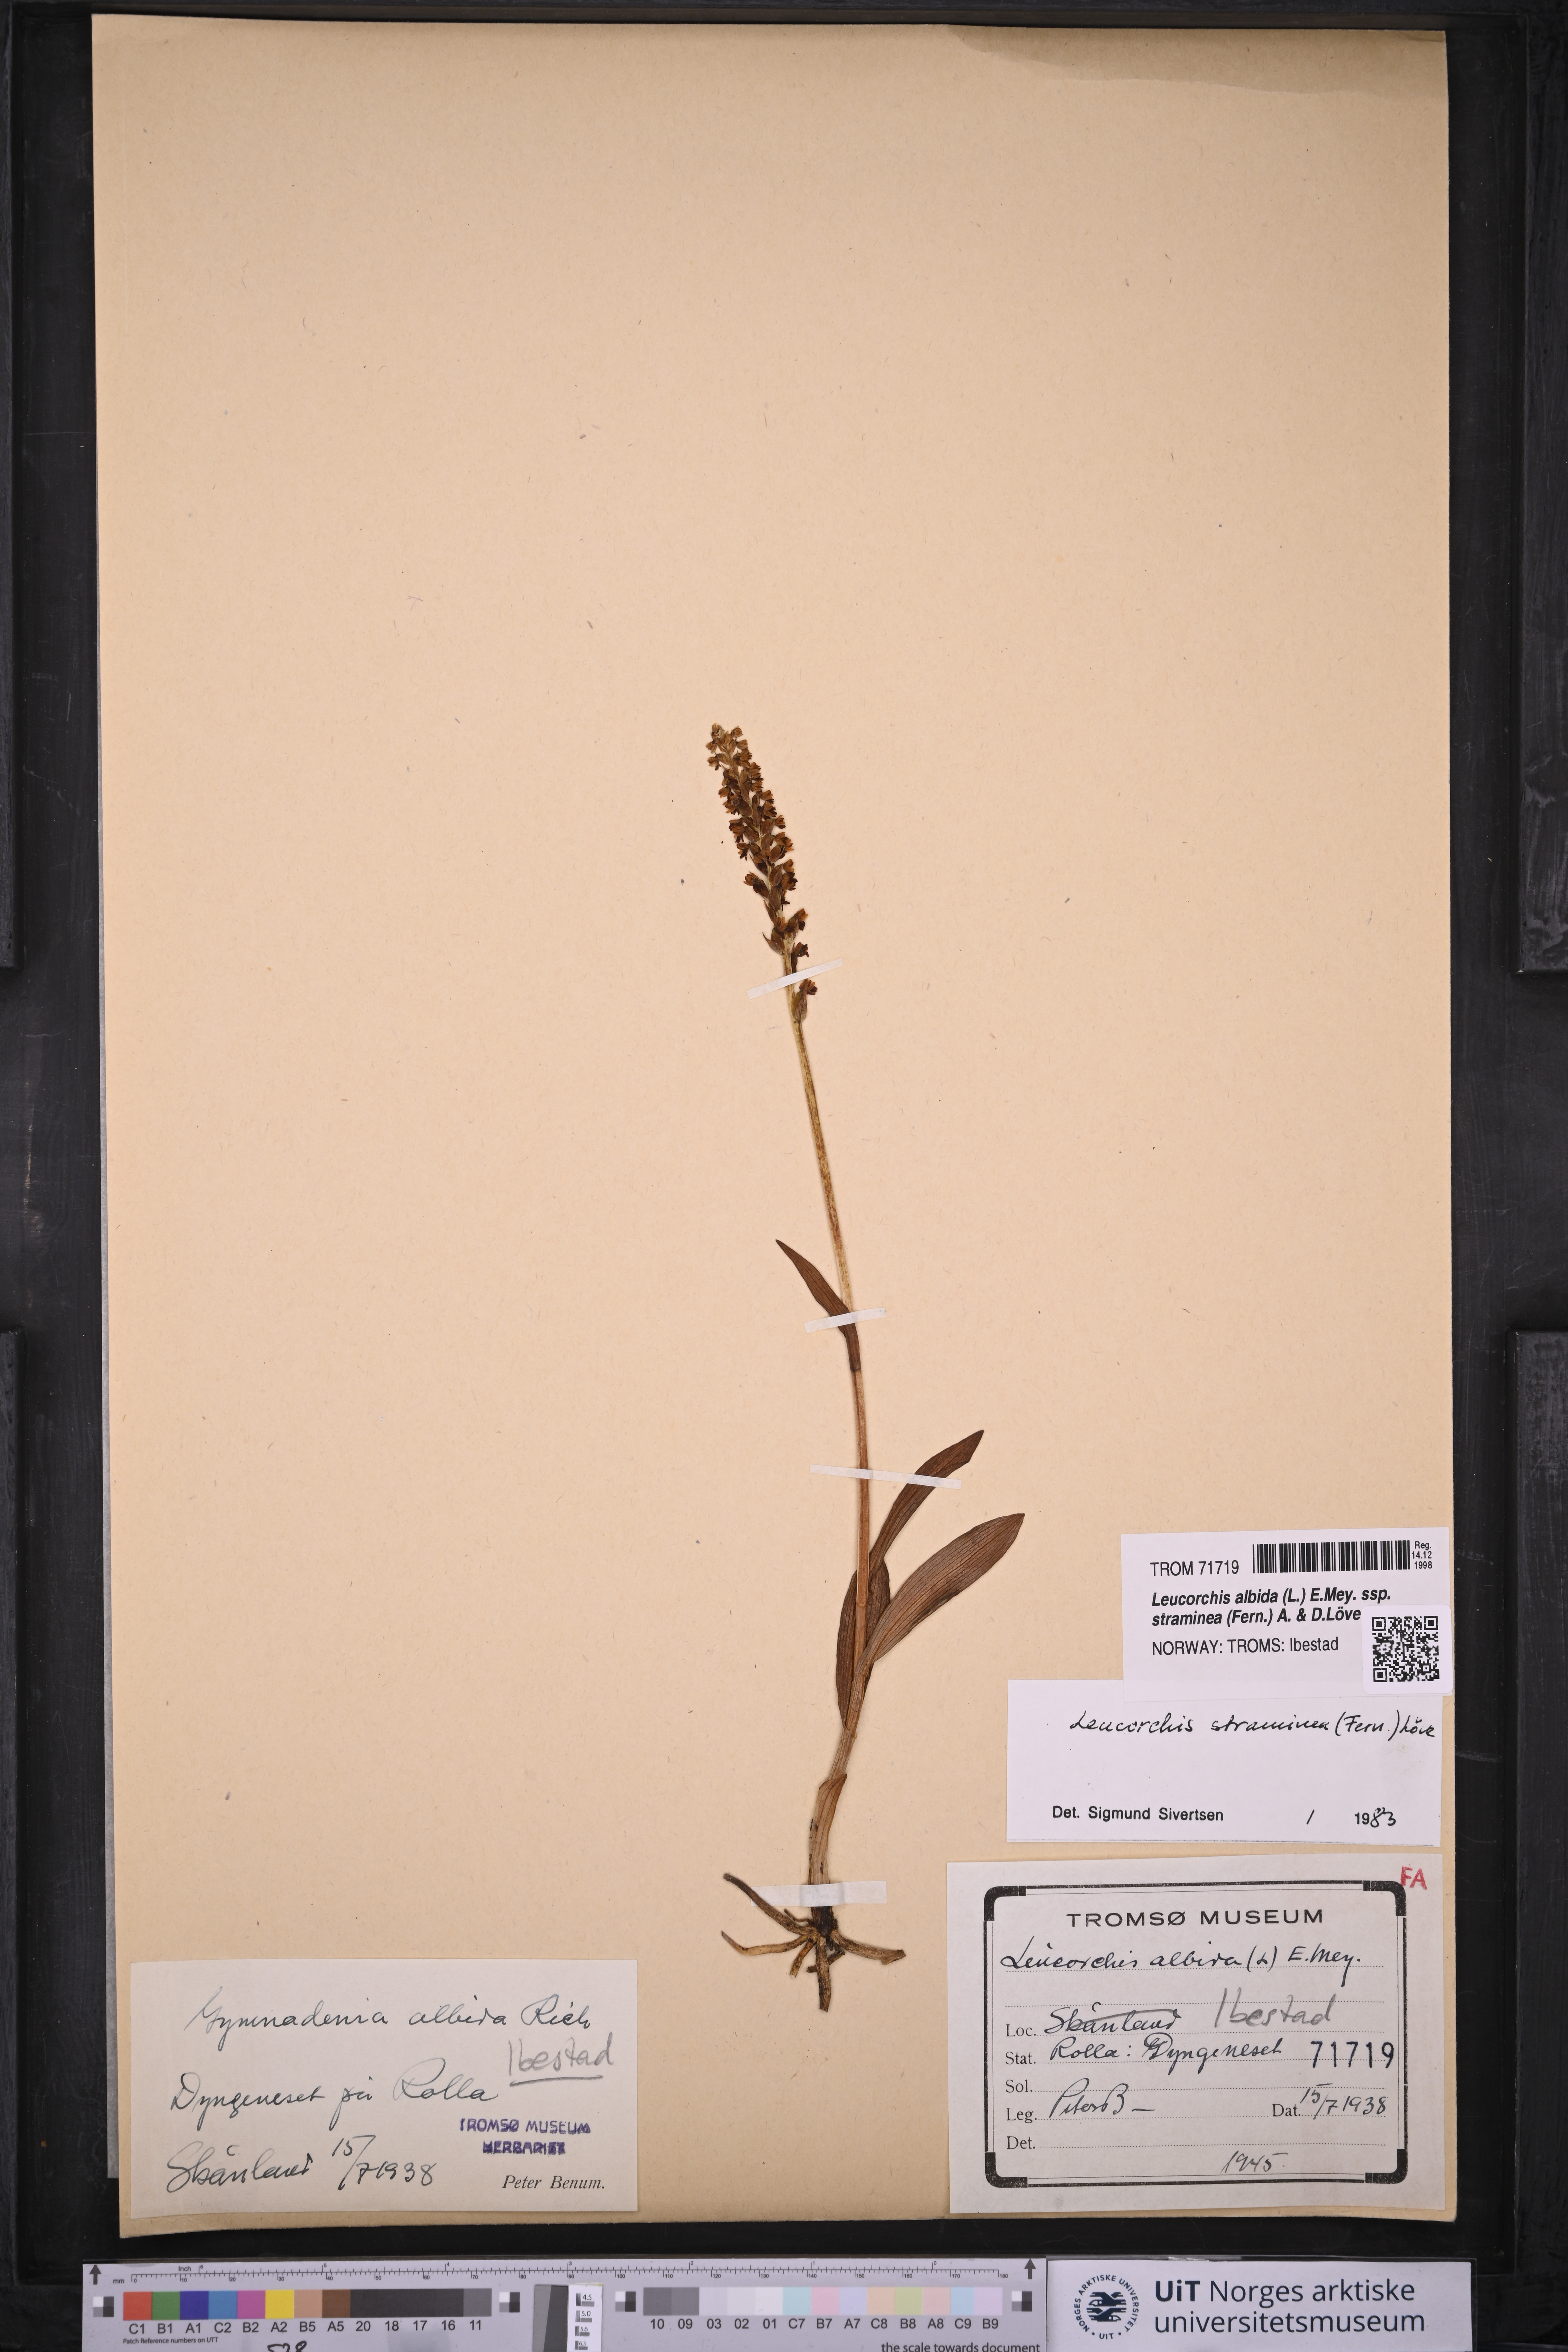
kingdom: Plantae
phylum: Tracheophyta
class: Liliopsida
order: Asparagales
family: Orchidaceae
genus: Pseudorchis
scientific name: Pseudorchis straminea
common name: Vanilla-scented bog orchid
